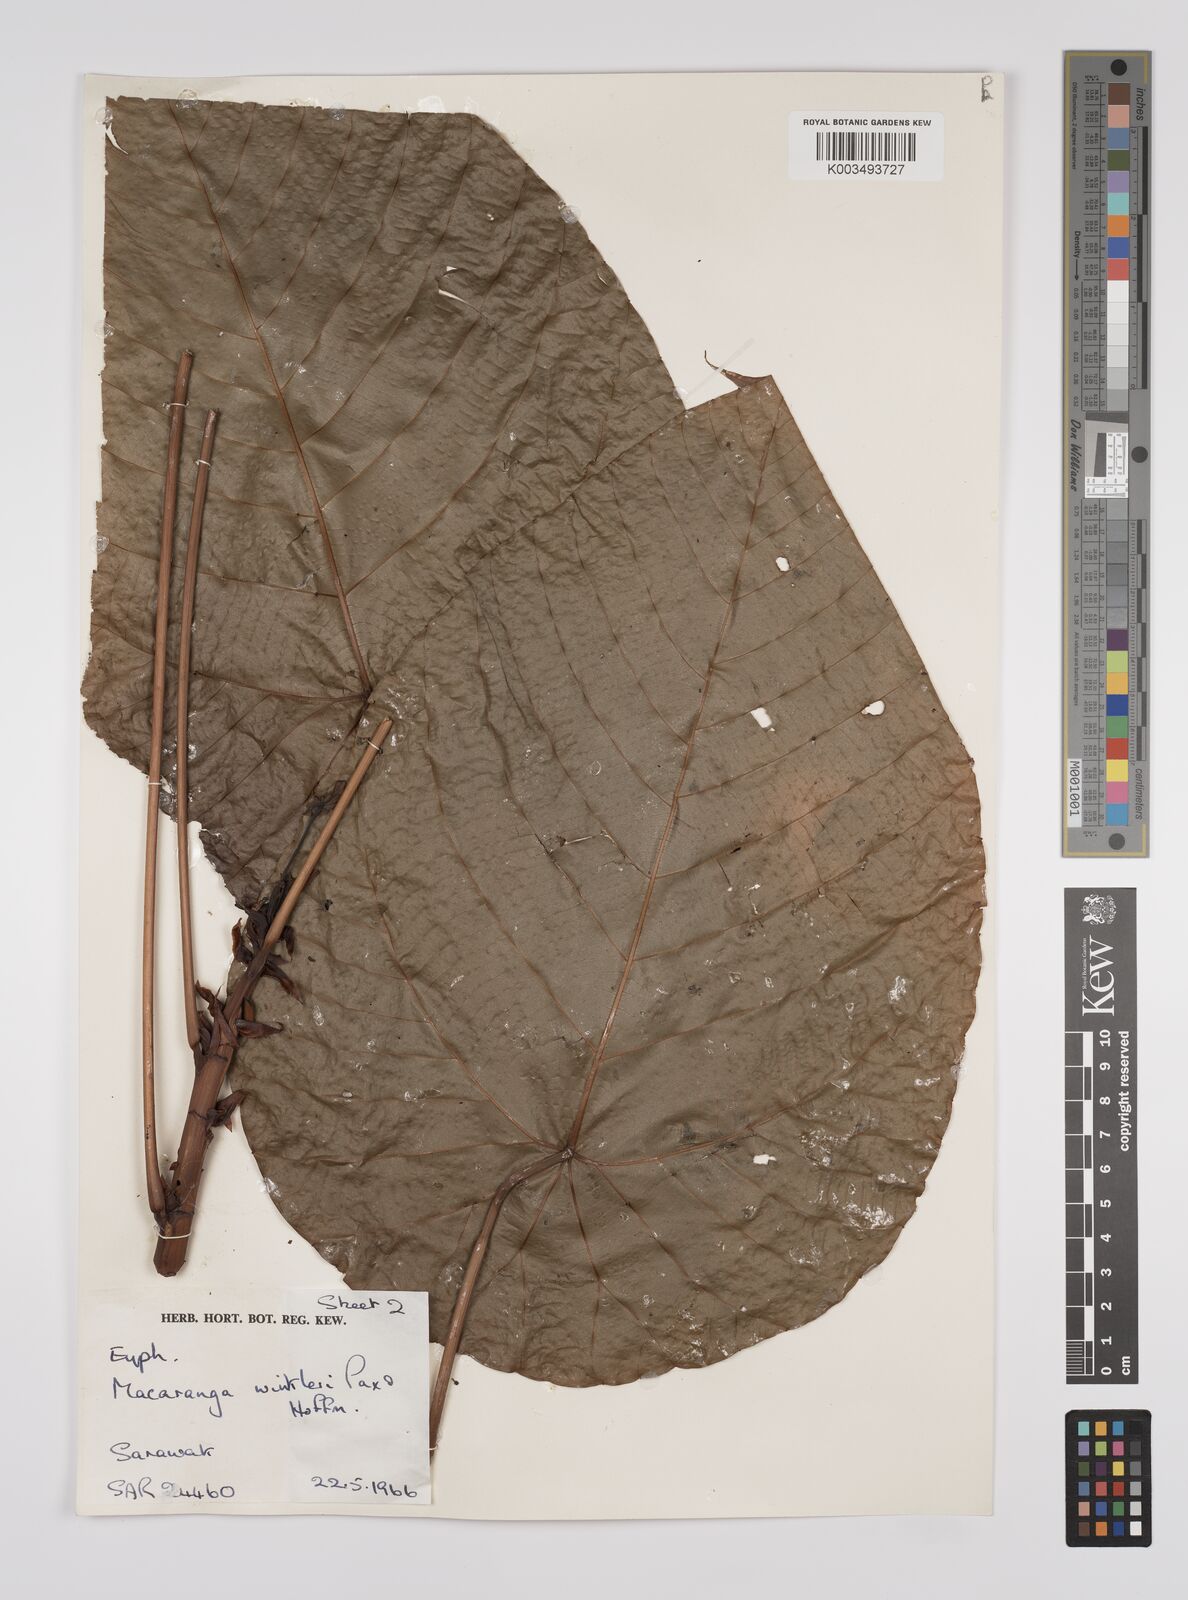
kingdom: Plantae
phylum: Tracheophyta
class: Magnoliopsida
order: Malpighiales
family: Euphorbiaceae
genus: Macaranga
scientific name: Macaranga winkleri
